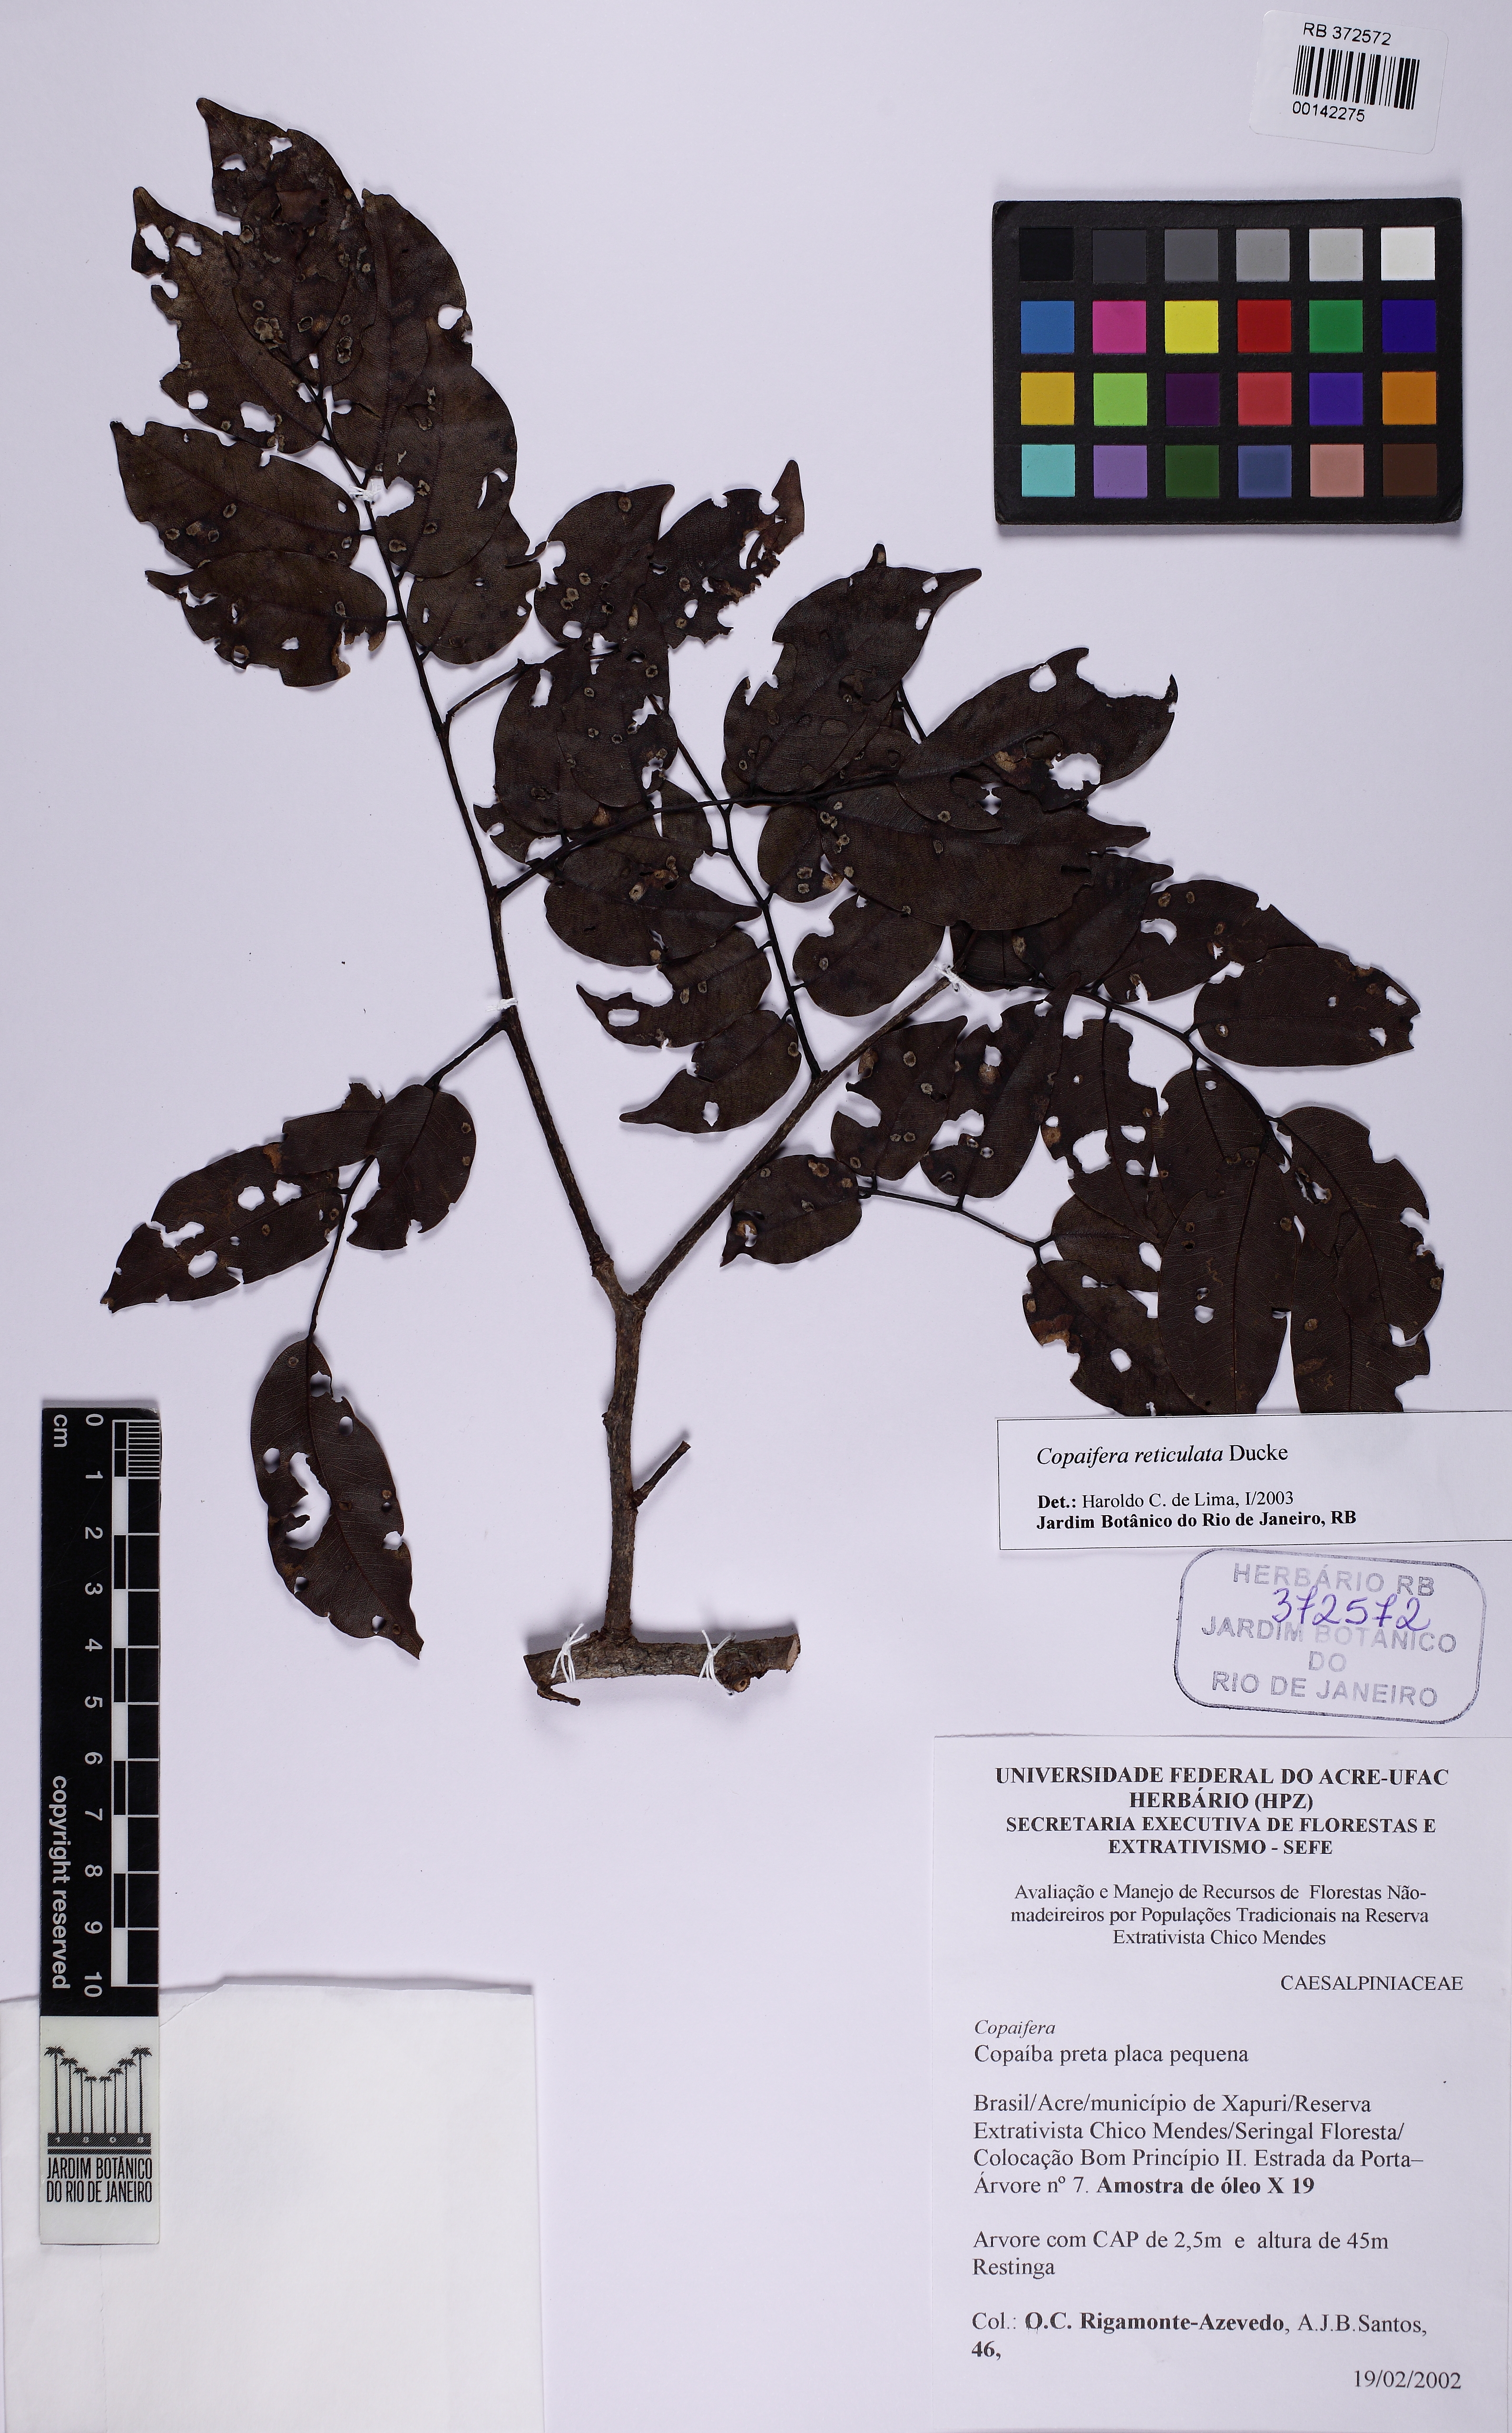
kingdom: Plantae
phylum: Tracheophyta
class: Magnoliopsida
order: Fabales
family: Fabaceae
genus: Copaifera
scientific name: Copaifera copaibo
